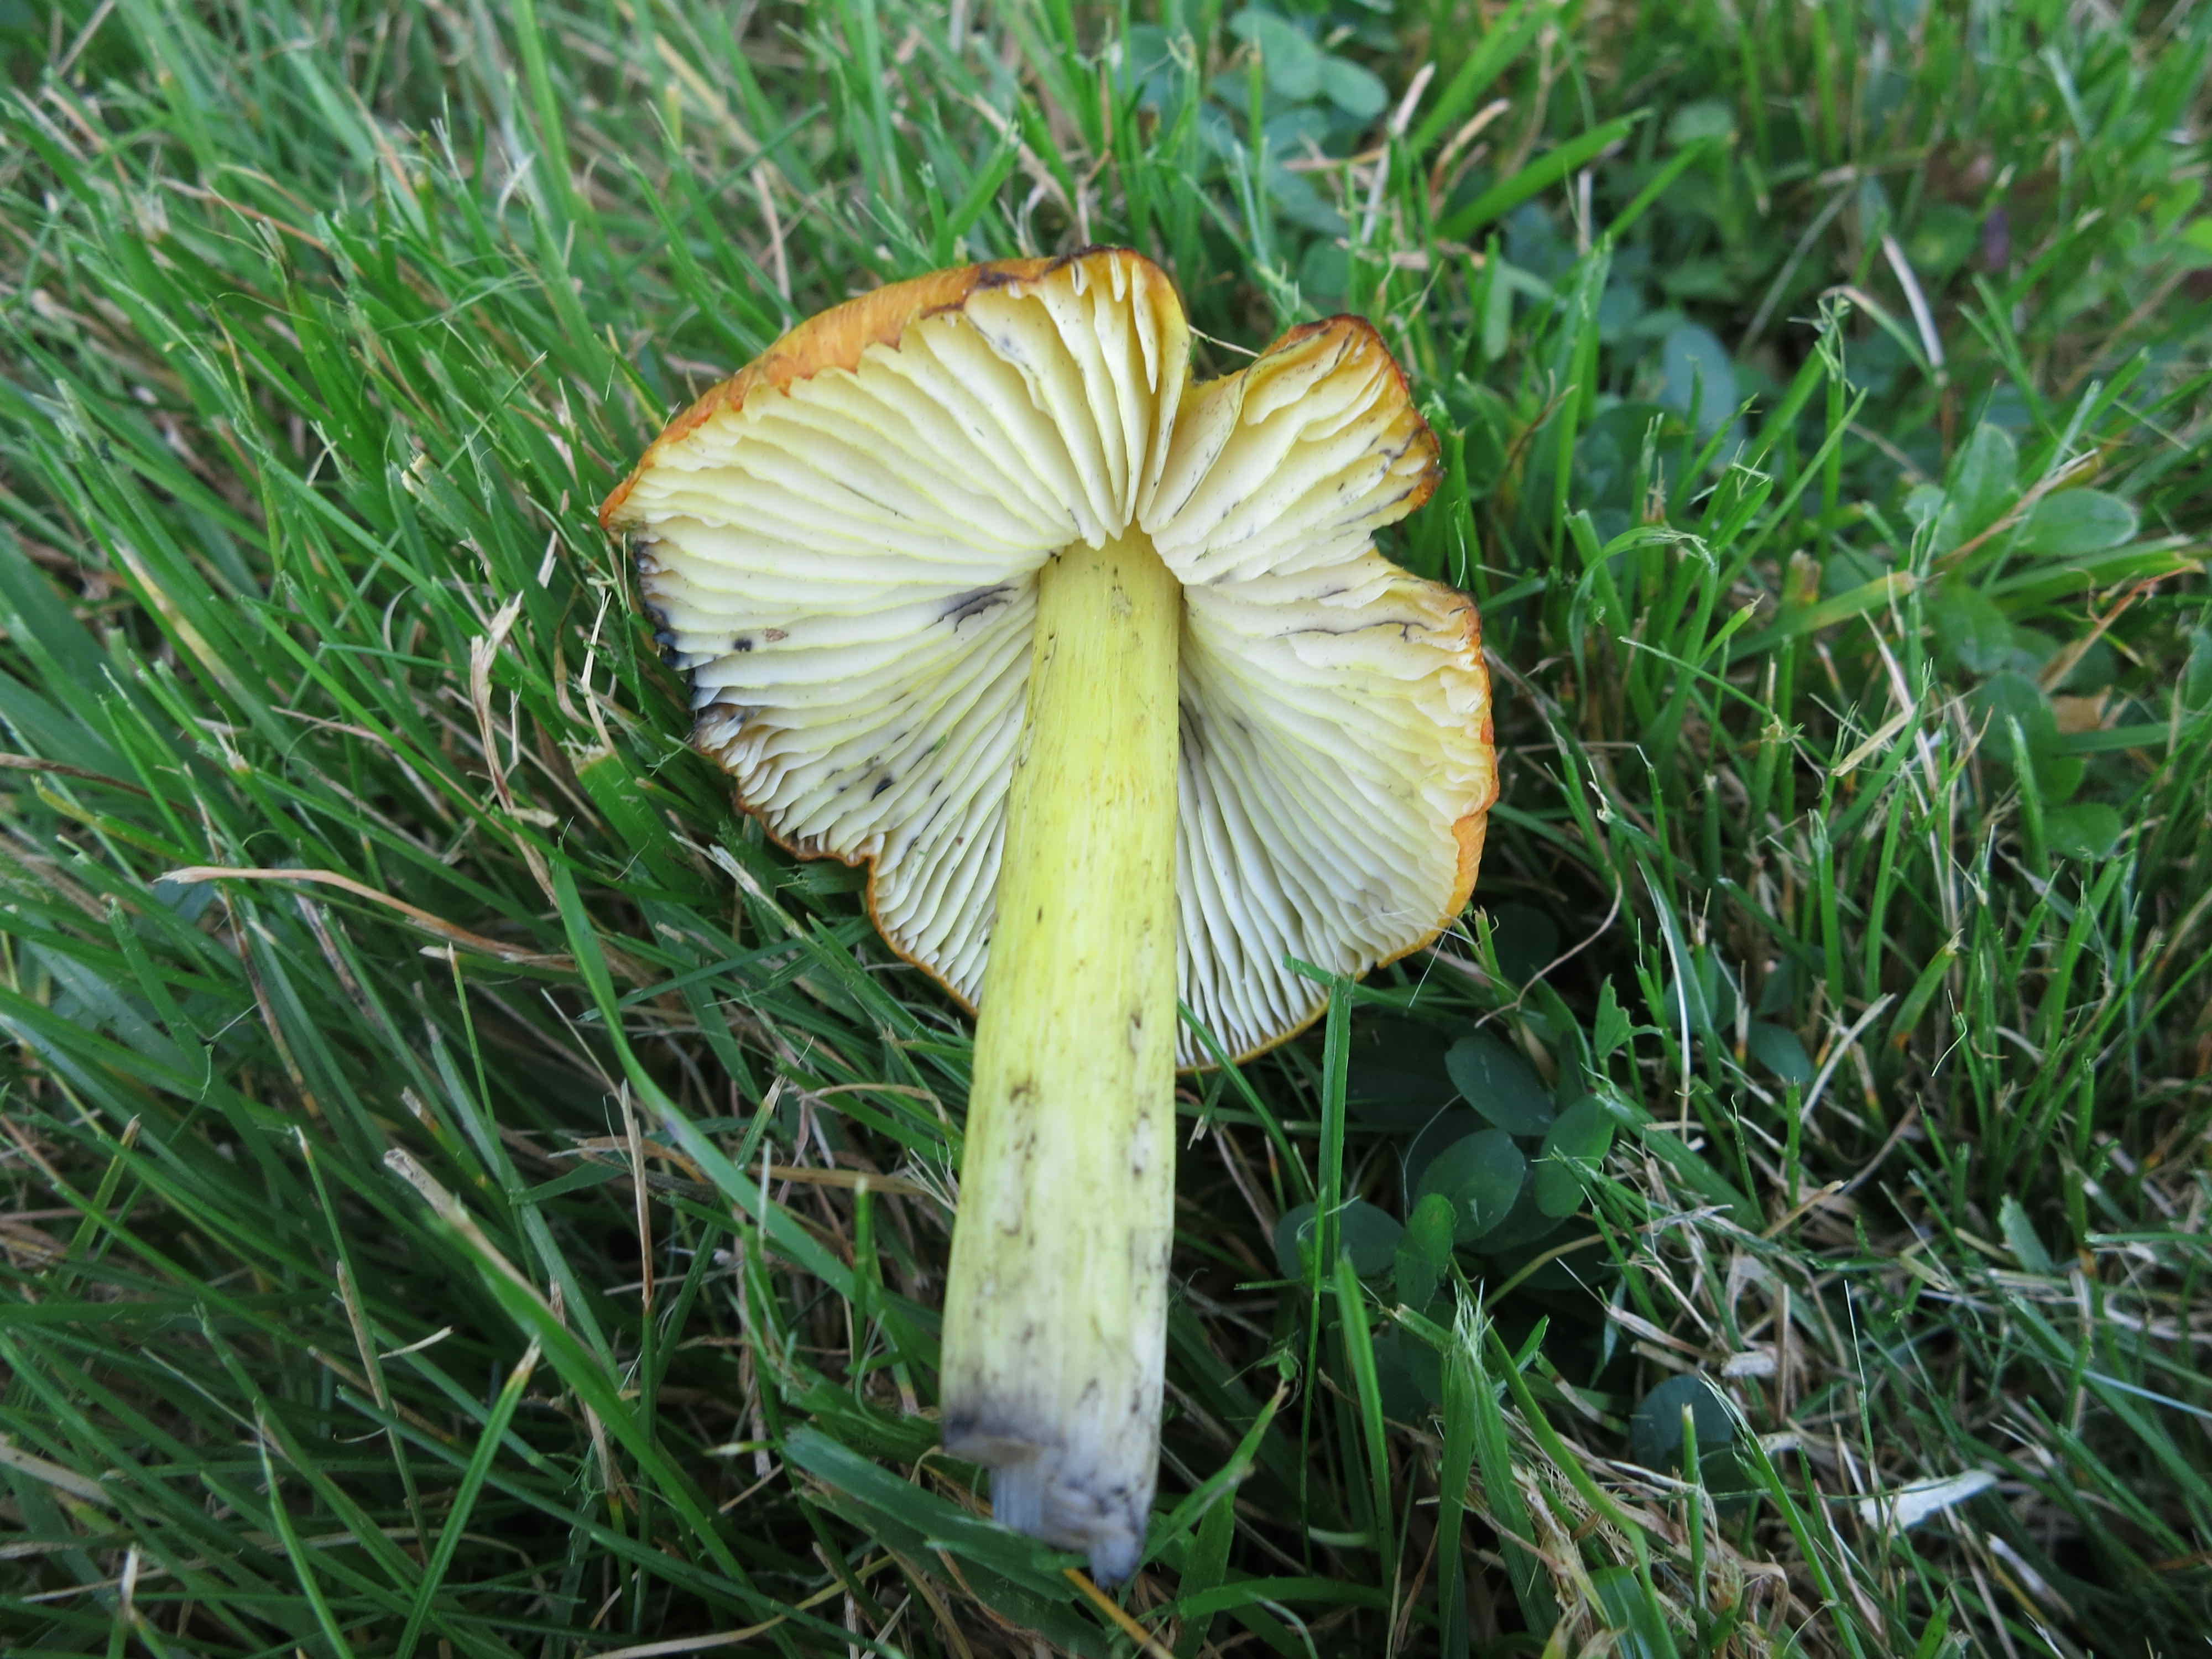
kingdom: Fungi
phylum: Basidiomycota
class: Agaricomycetes
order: Agaricales
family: Hygrophoraceae
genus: Hygrocybe
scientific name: Hygrocybe conica
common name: kegle-vokshat
